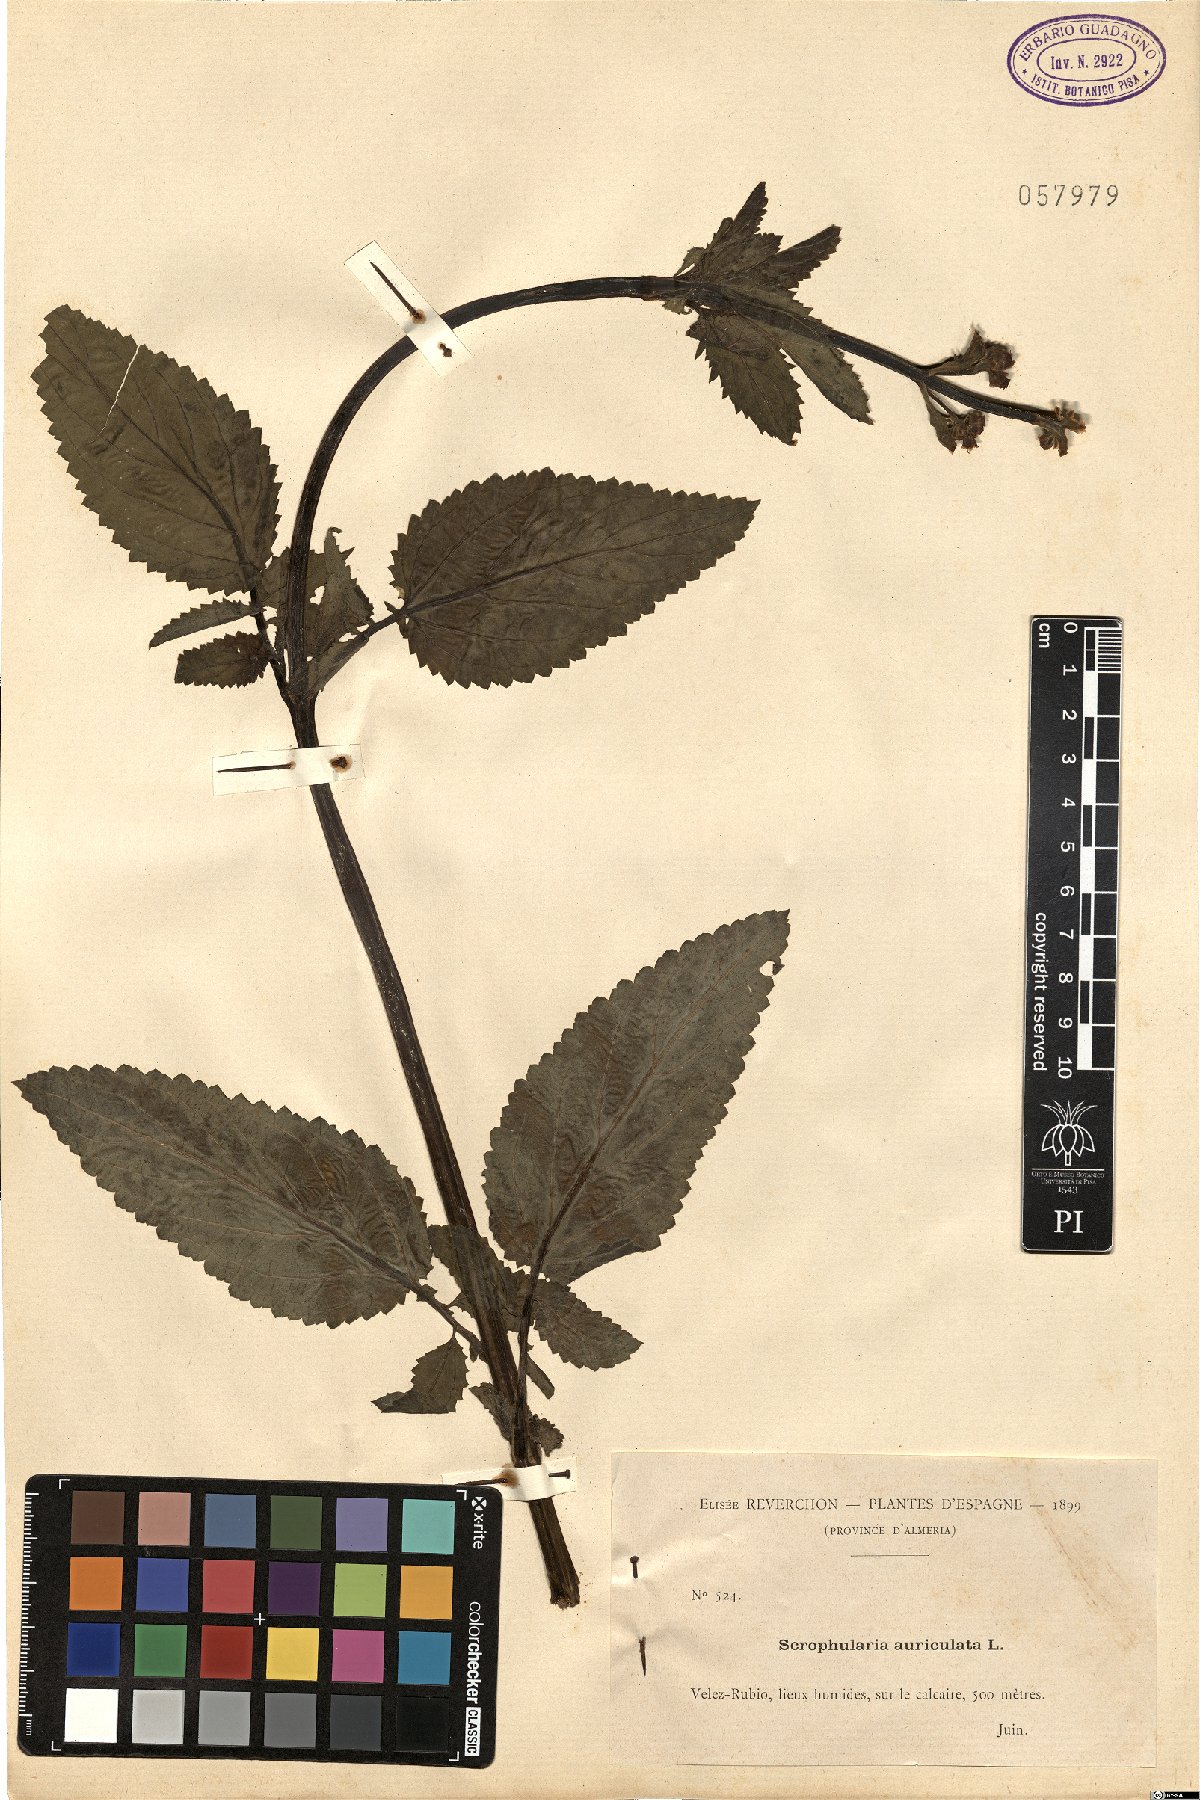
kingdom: Plantae
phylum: Tracheophyta
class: Magnoliopsida
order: Lamiales
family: Scrophulariaceae
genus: Scrophularia
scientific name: Scrophularia auriculata
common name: Water betony
